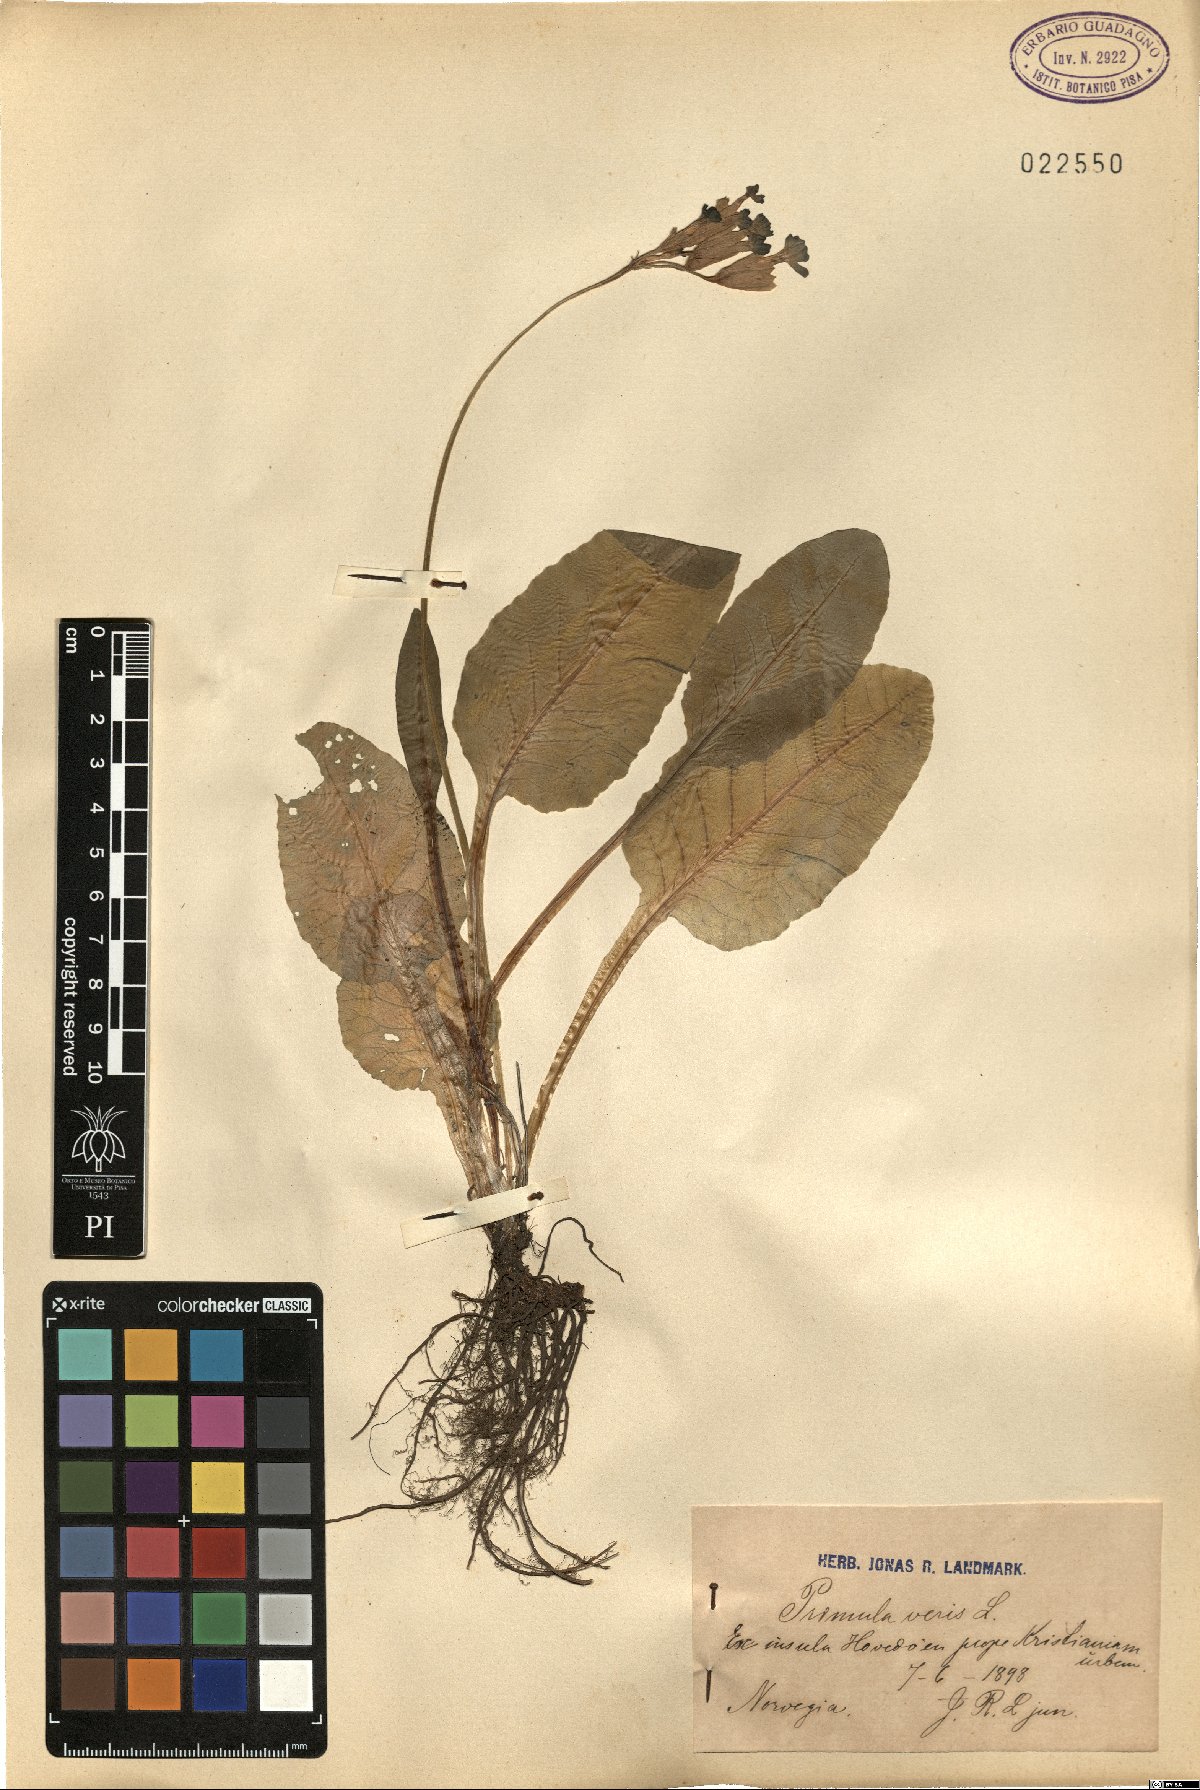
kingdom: Plantae
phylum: Tracheophyta
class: Magnoliopsida
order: Ericales
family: Primulaceae
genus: Primula
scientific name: Primula veris
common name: Cowslip
